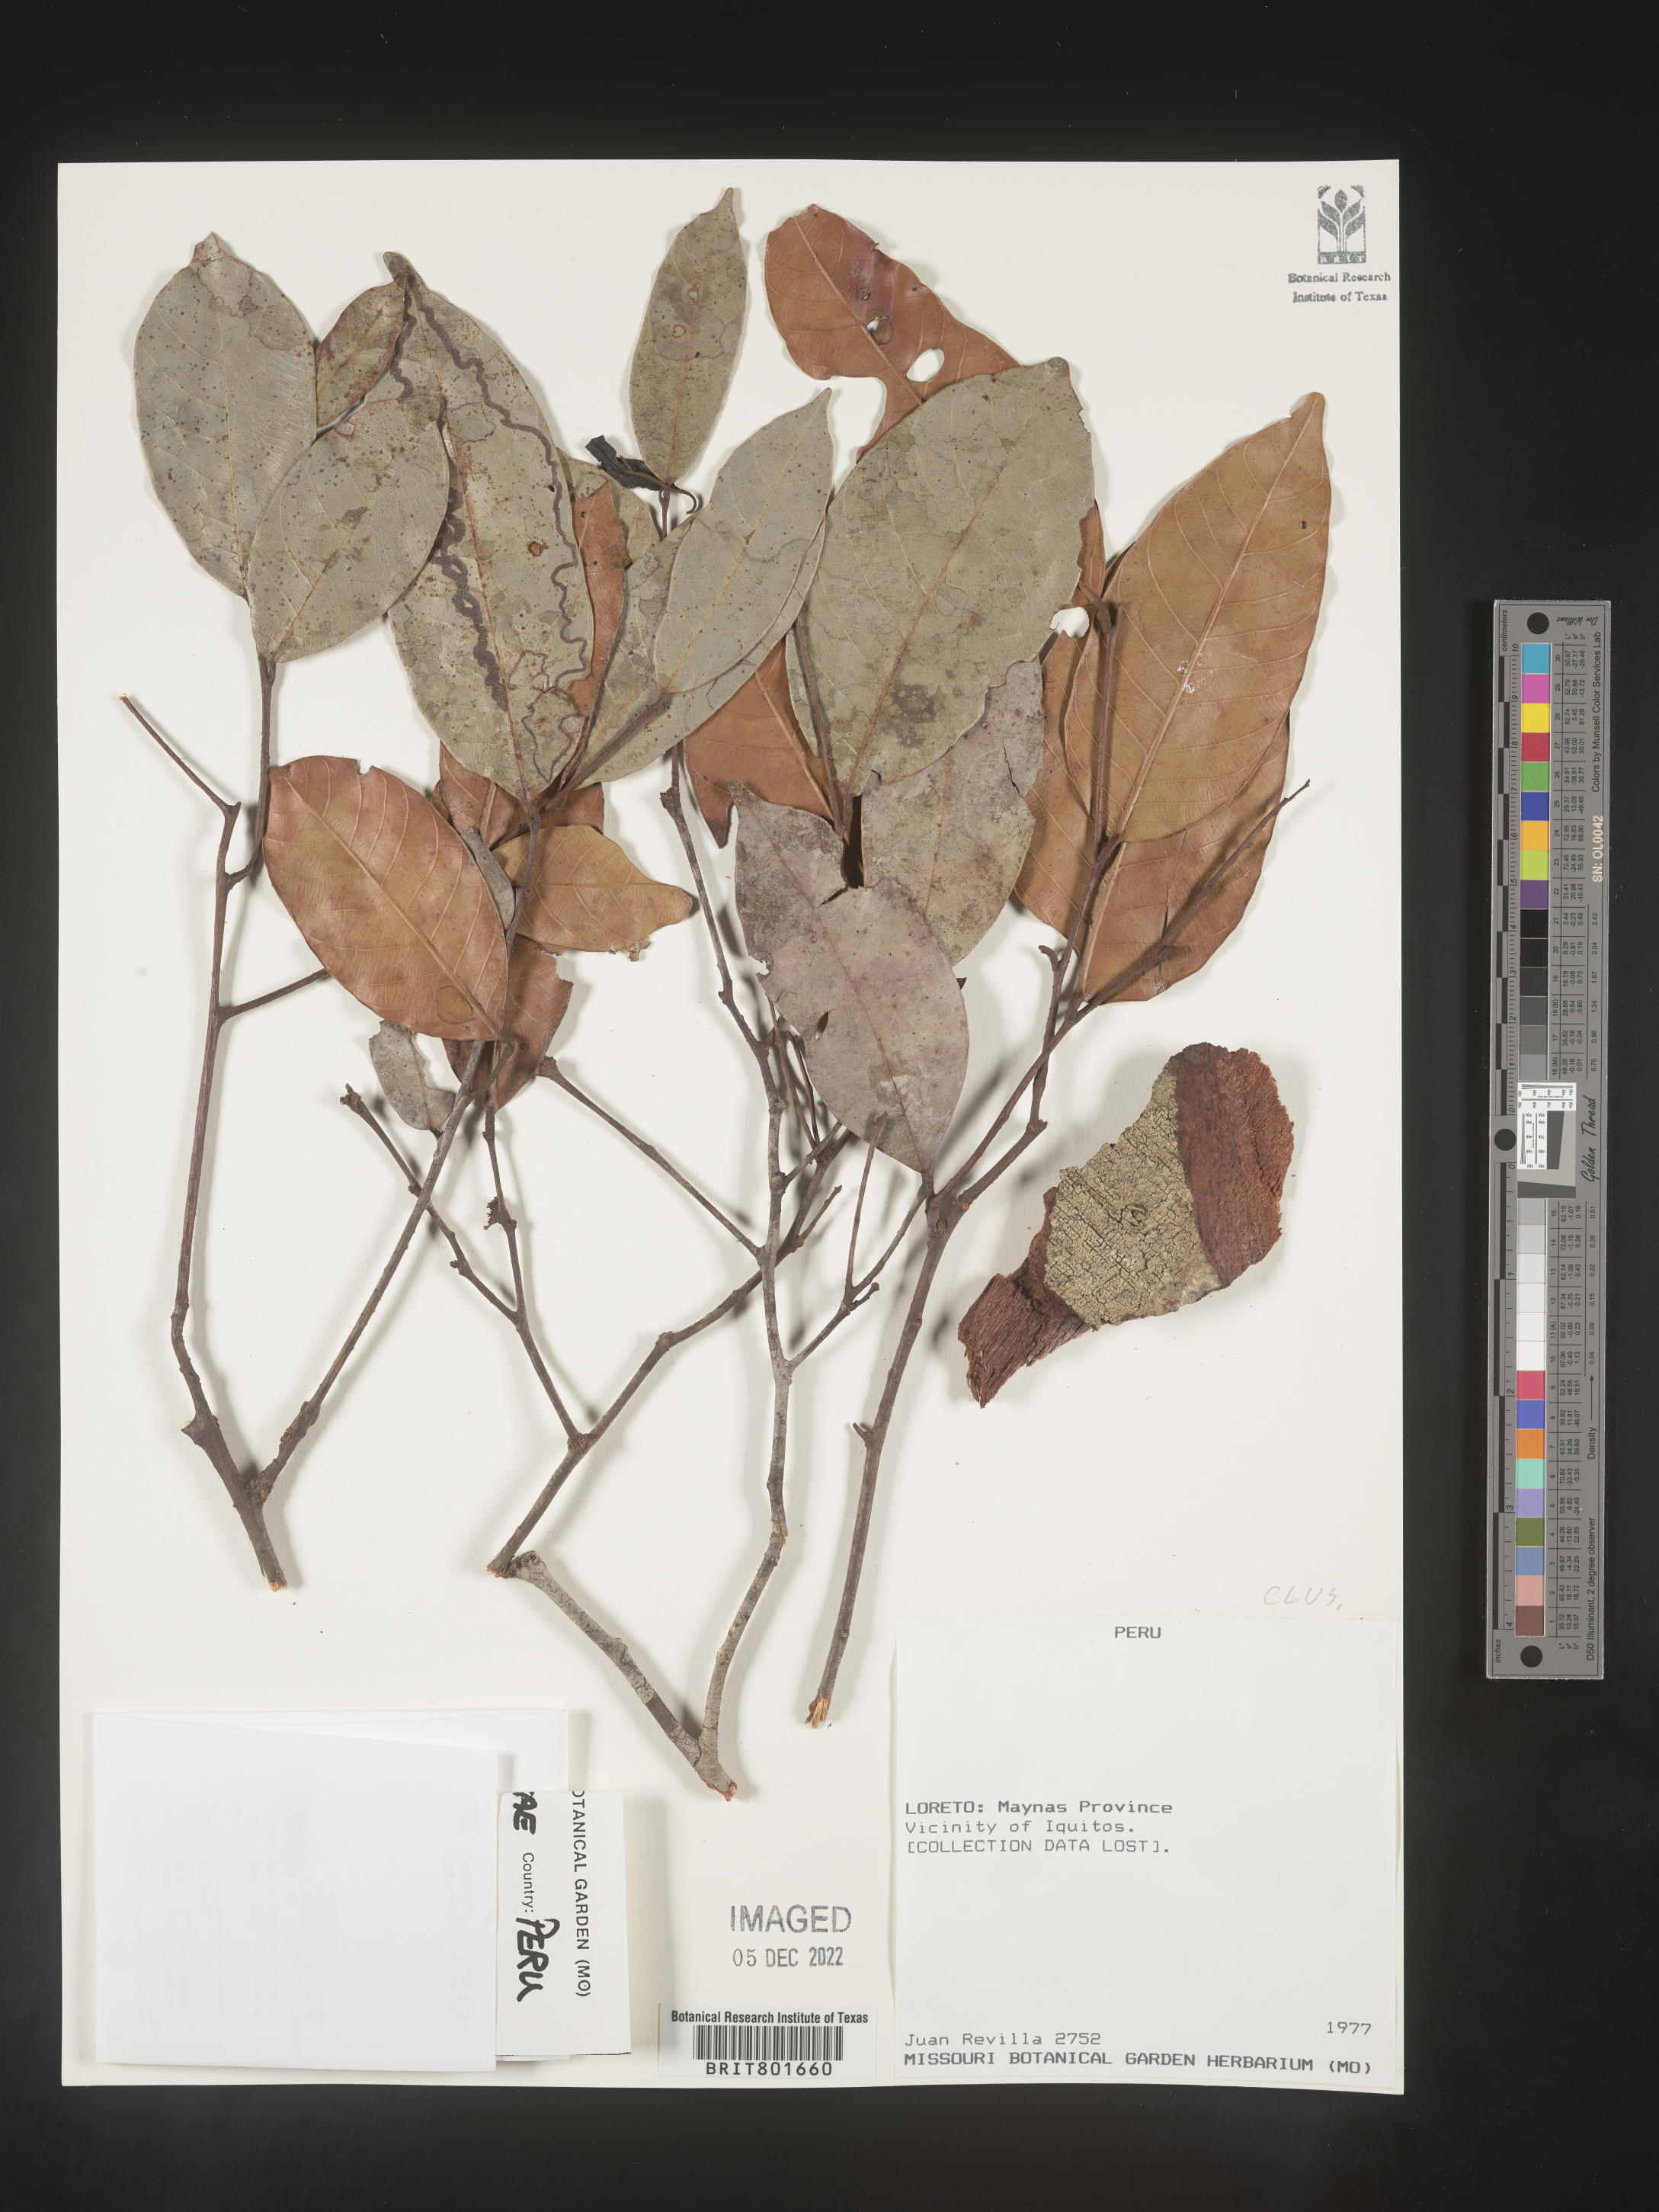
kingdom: Plantae
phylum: Tracheophyta
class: Magnoliopsida
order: Malpighiales
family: Clusiaceae
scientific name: Clusiaceae
